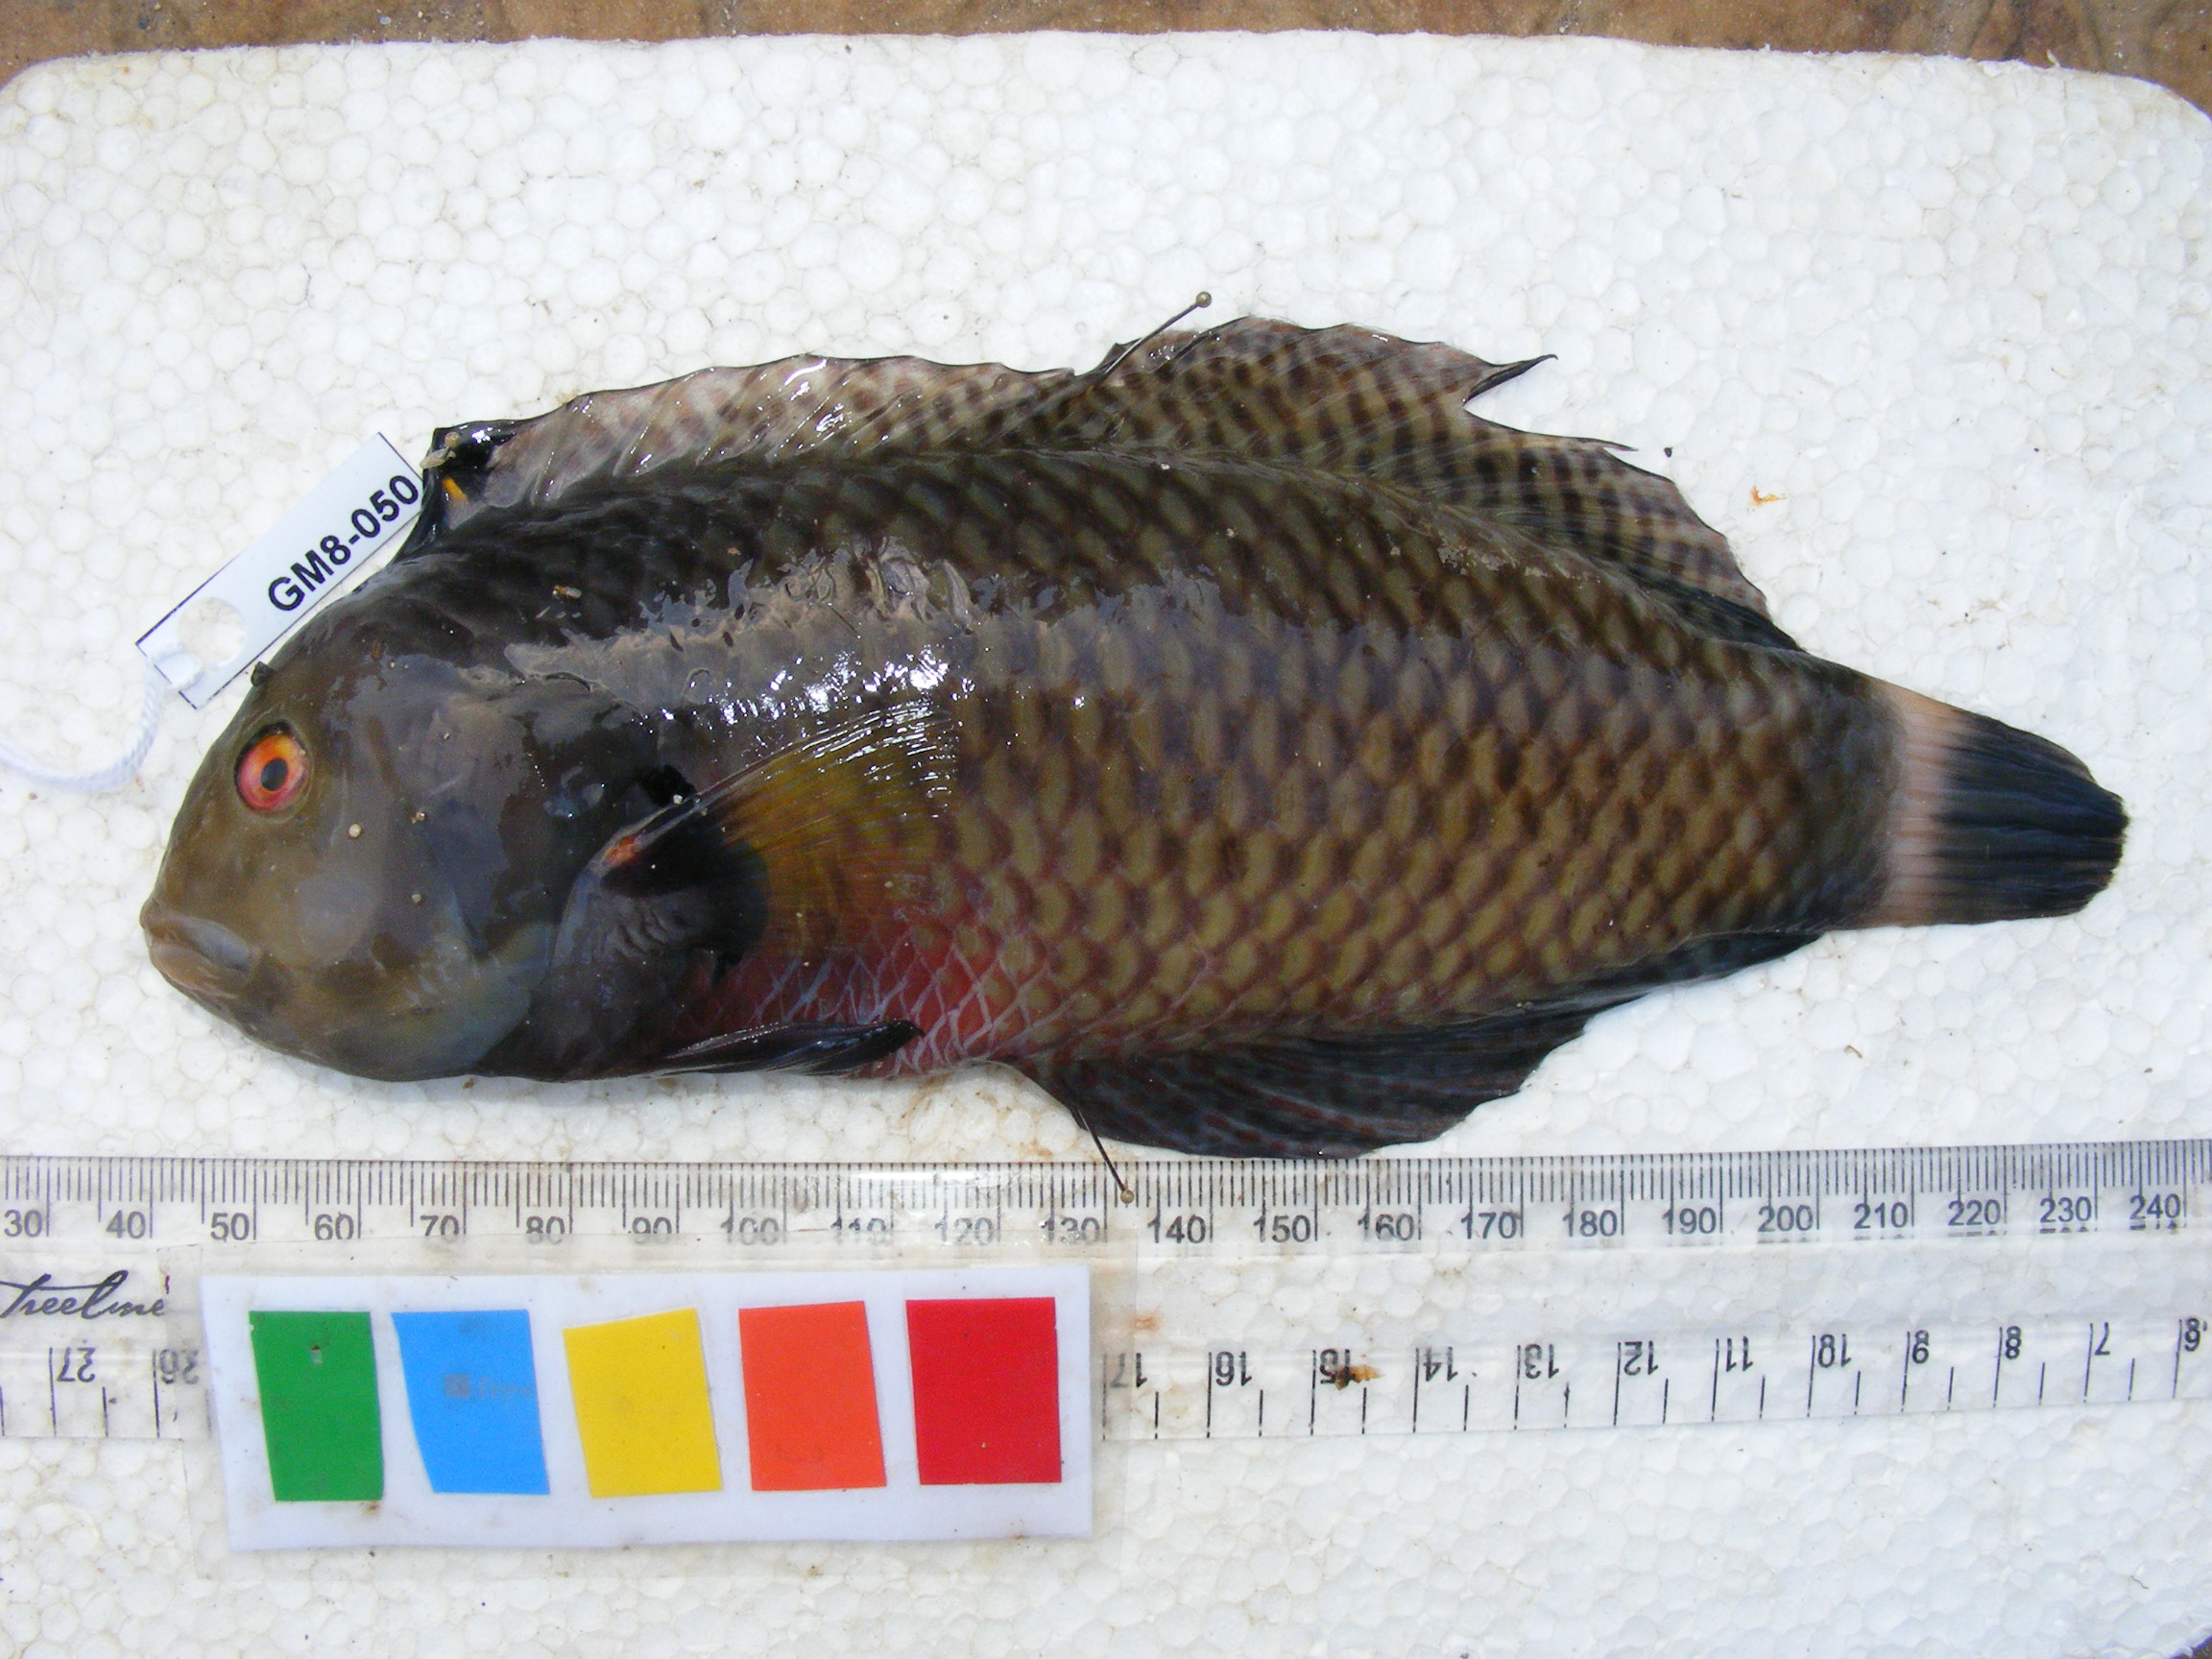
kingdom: Animalia
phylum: Chordata
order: Perciformes
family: Labridae
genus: Novaculichthys
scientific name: Novaculichthys taeniourus
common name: Rockmover wrasse
